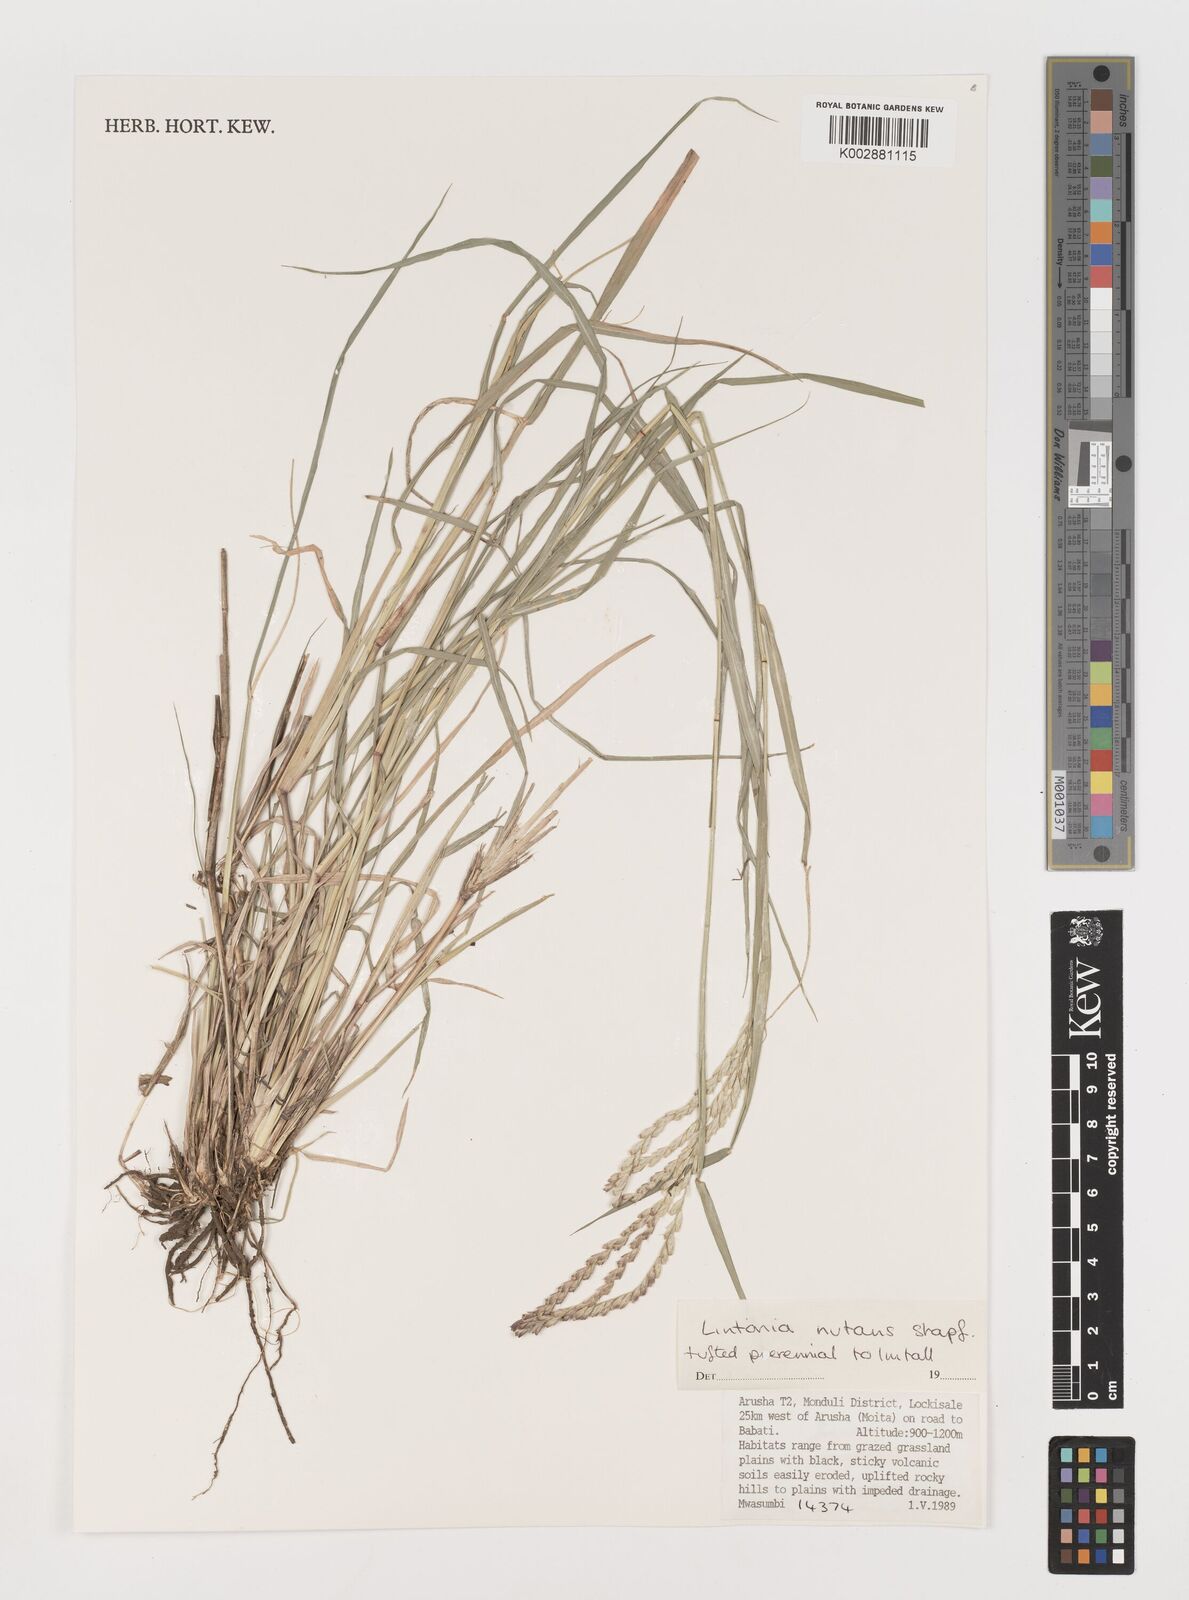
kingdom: Plantae
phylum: Tracheophyta
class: Liliopsida
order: Poales
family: Poaceae
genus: Chloris
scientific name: Chloris nutans
